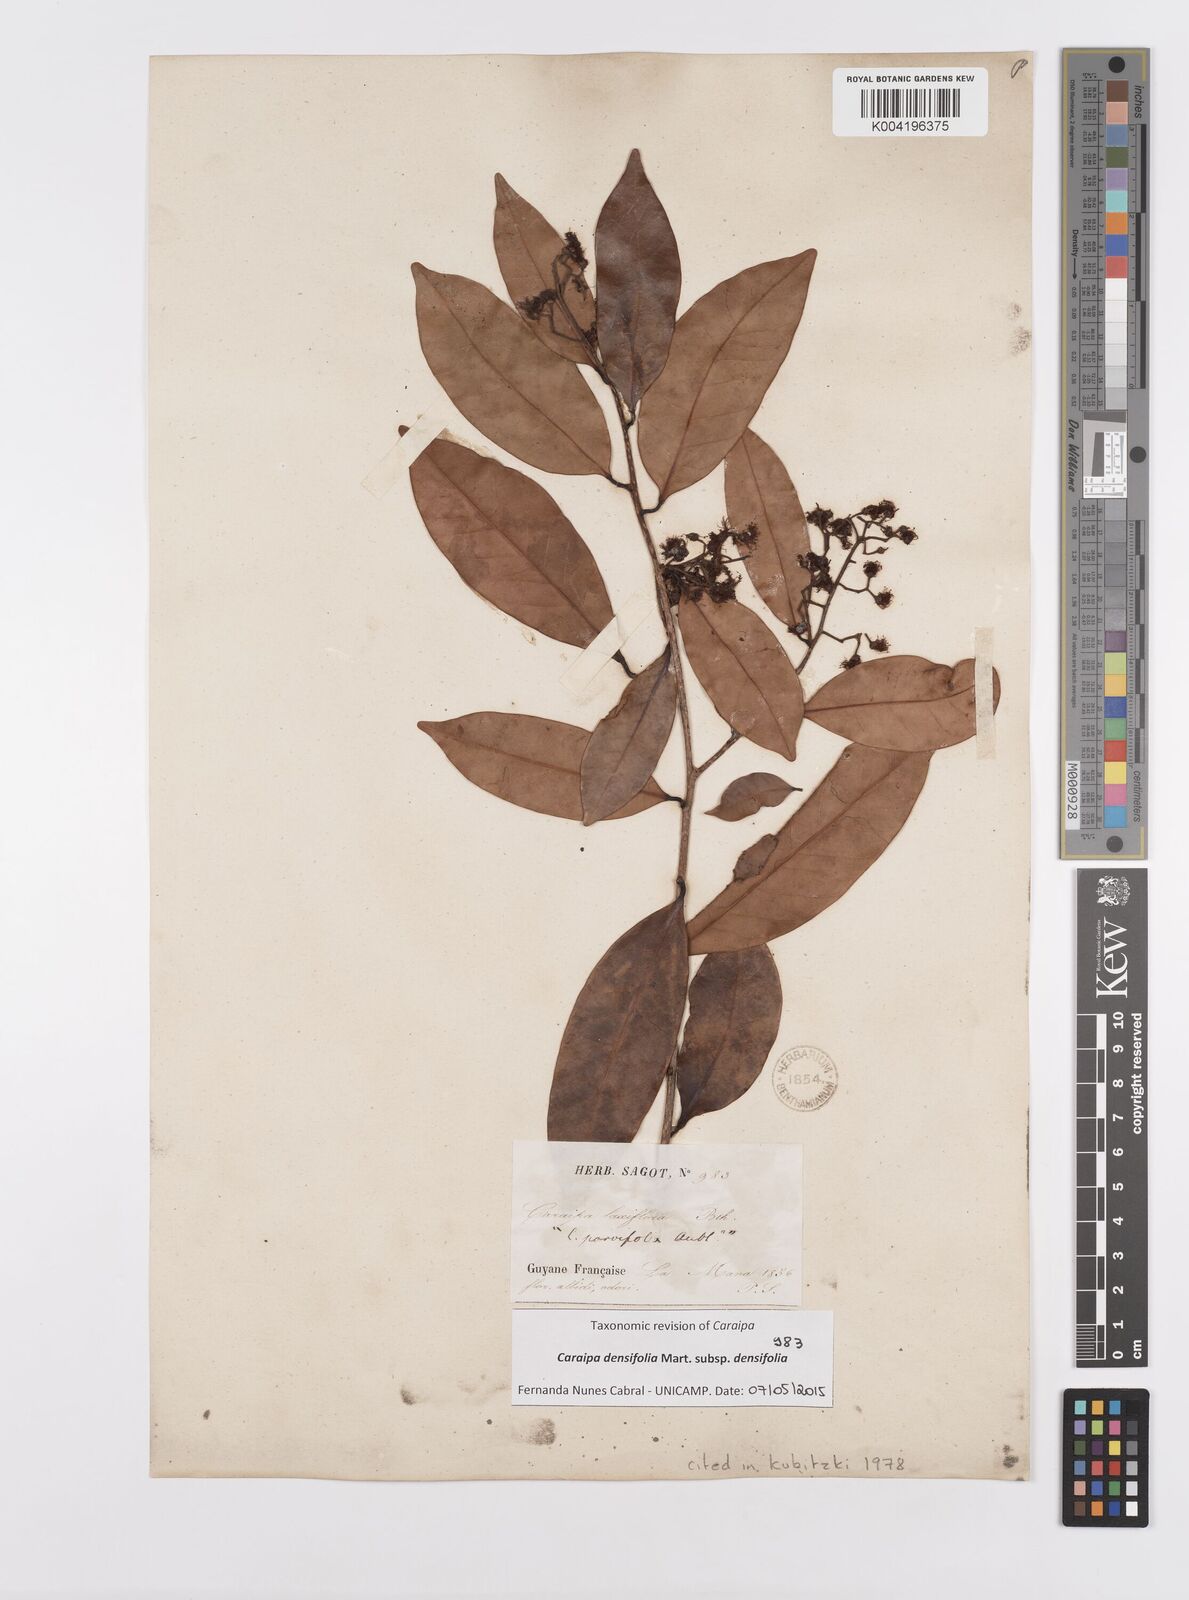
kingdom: Plantae
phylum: Tracheophyta
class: Magnoliopsida
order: Malpighiales
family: Calophyllaceae
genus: Caraipa
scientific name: Caraipa densifolia
